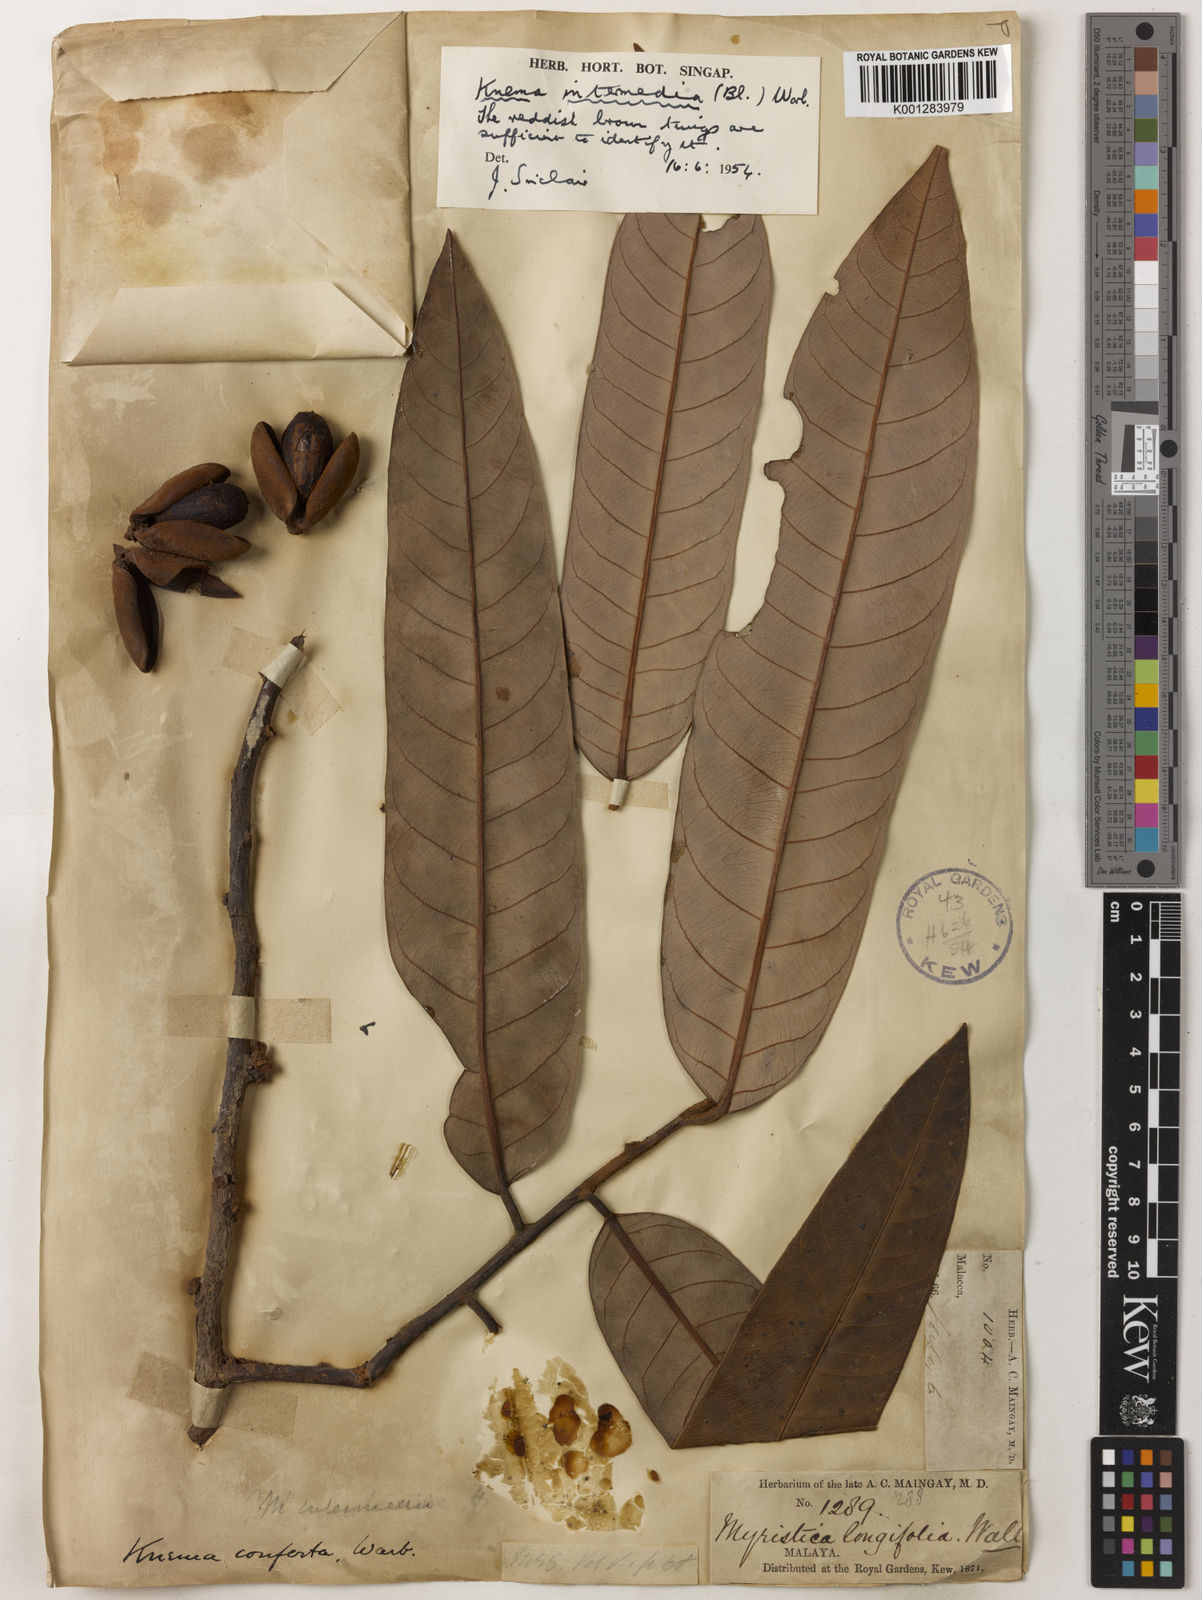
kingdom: Plantae
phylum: Tracheophyta
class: Magnoliopsida
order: Magnoliales
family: Myristicaceae
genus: Knema
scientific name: Knema intermedia
